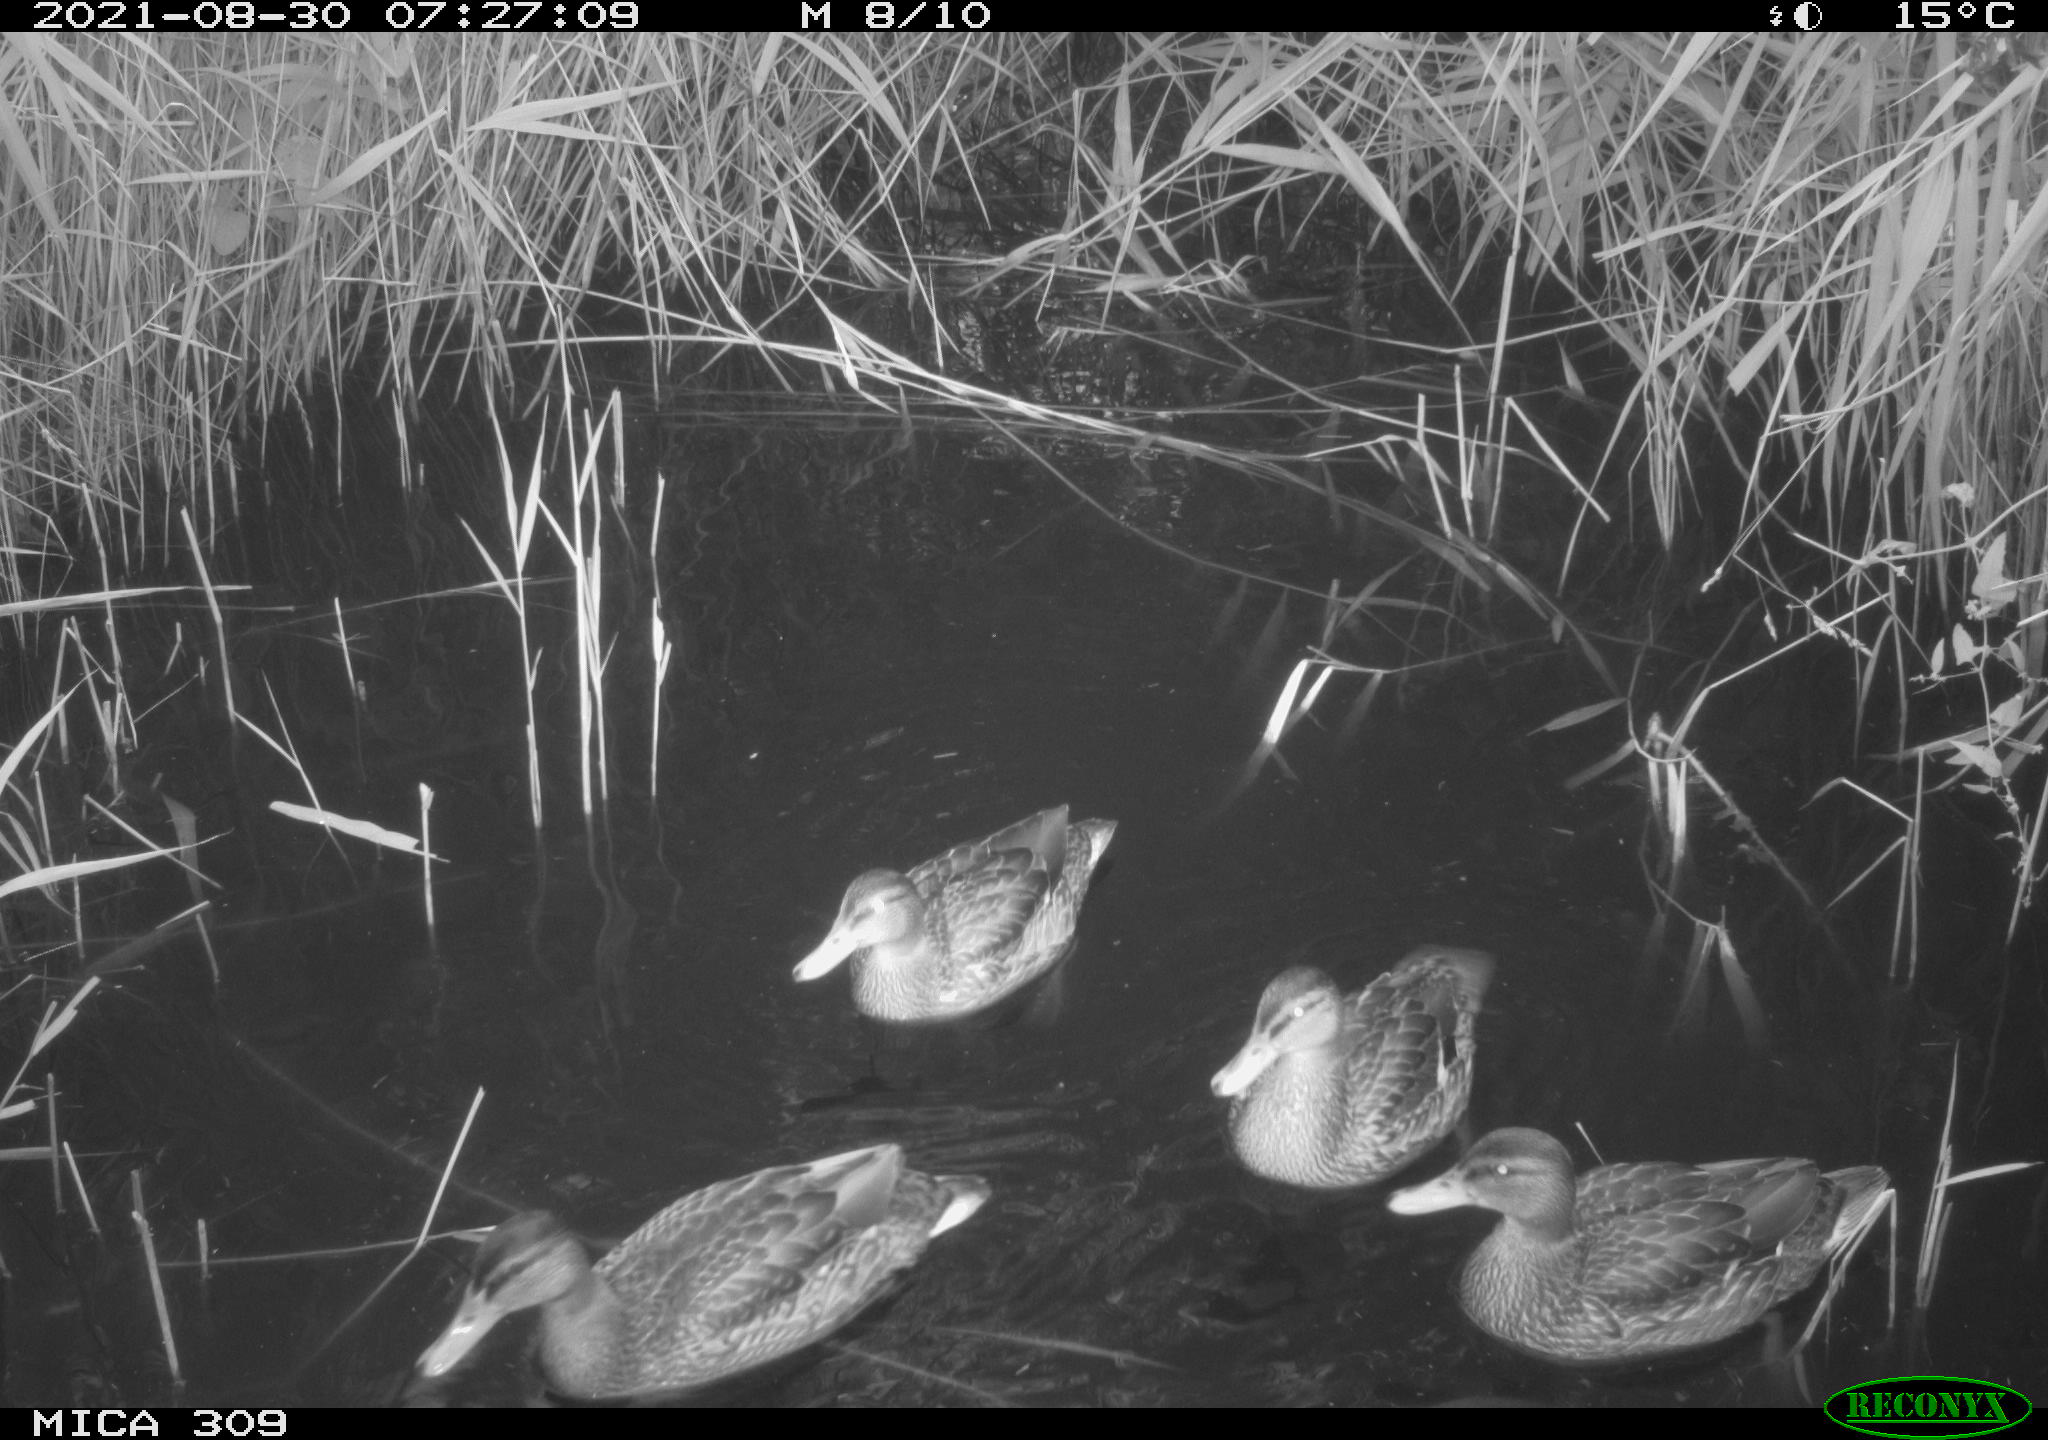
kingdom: Animalia
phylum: Chordata
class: Aves
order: Anseriformes
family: Anatidae
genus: Mareca
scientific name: Mareca strepera
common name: Gadwall
